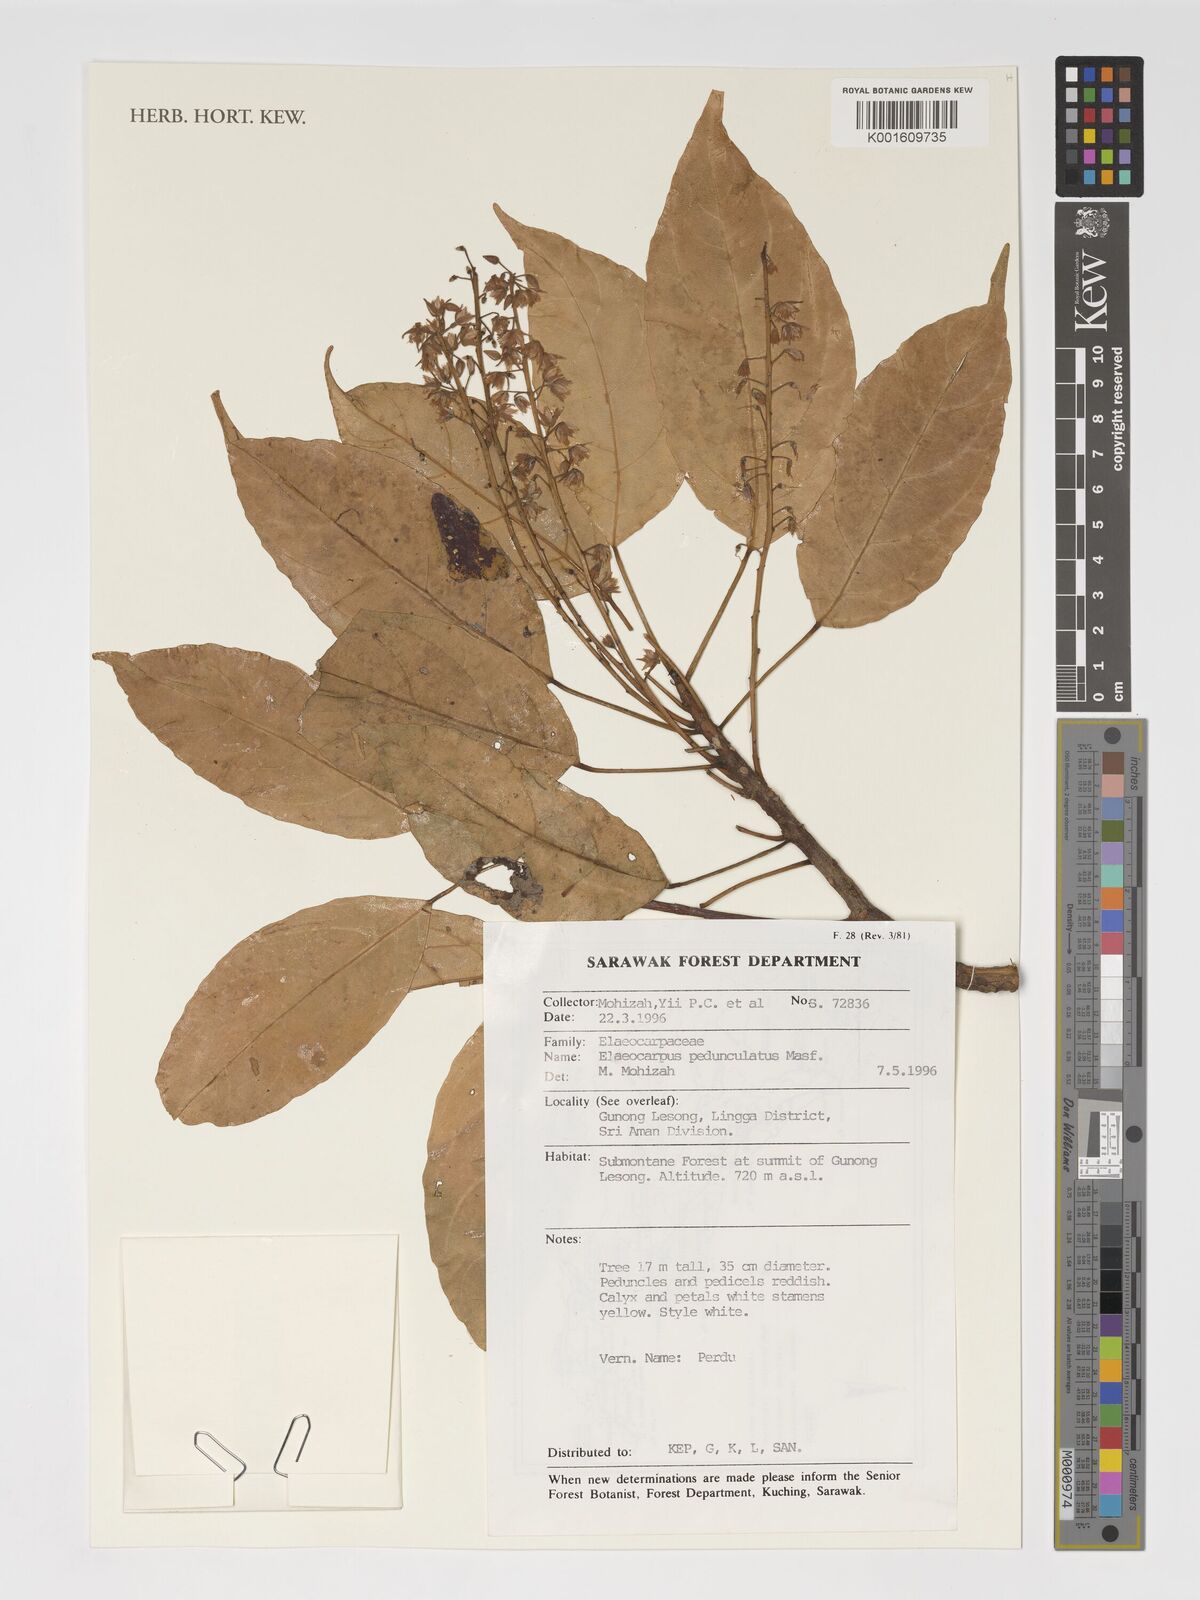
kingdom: Plantae
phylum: Tracheophyta
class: Magnoliopsida
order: Oxalidales
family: Elaeocarpaceae
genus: Elaeocarpus
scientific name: Elaeocarpus pedunculatus
